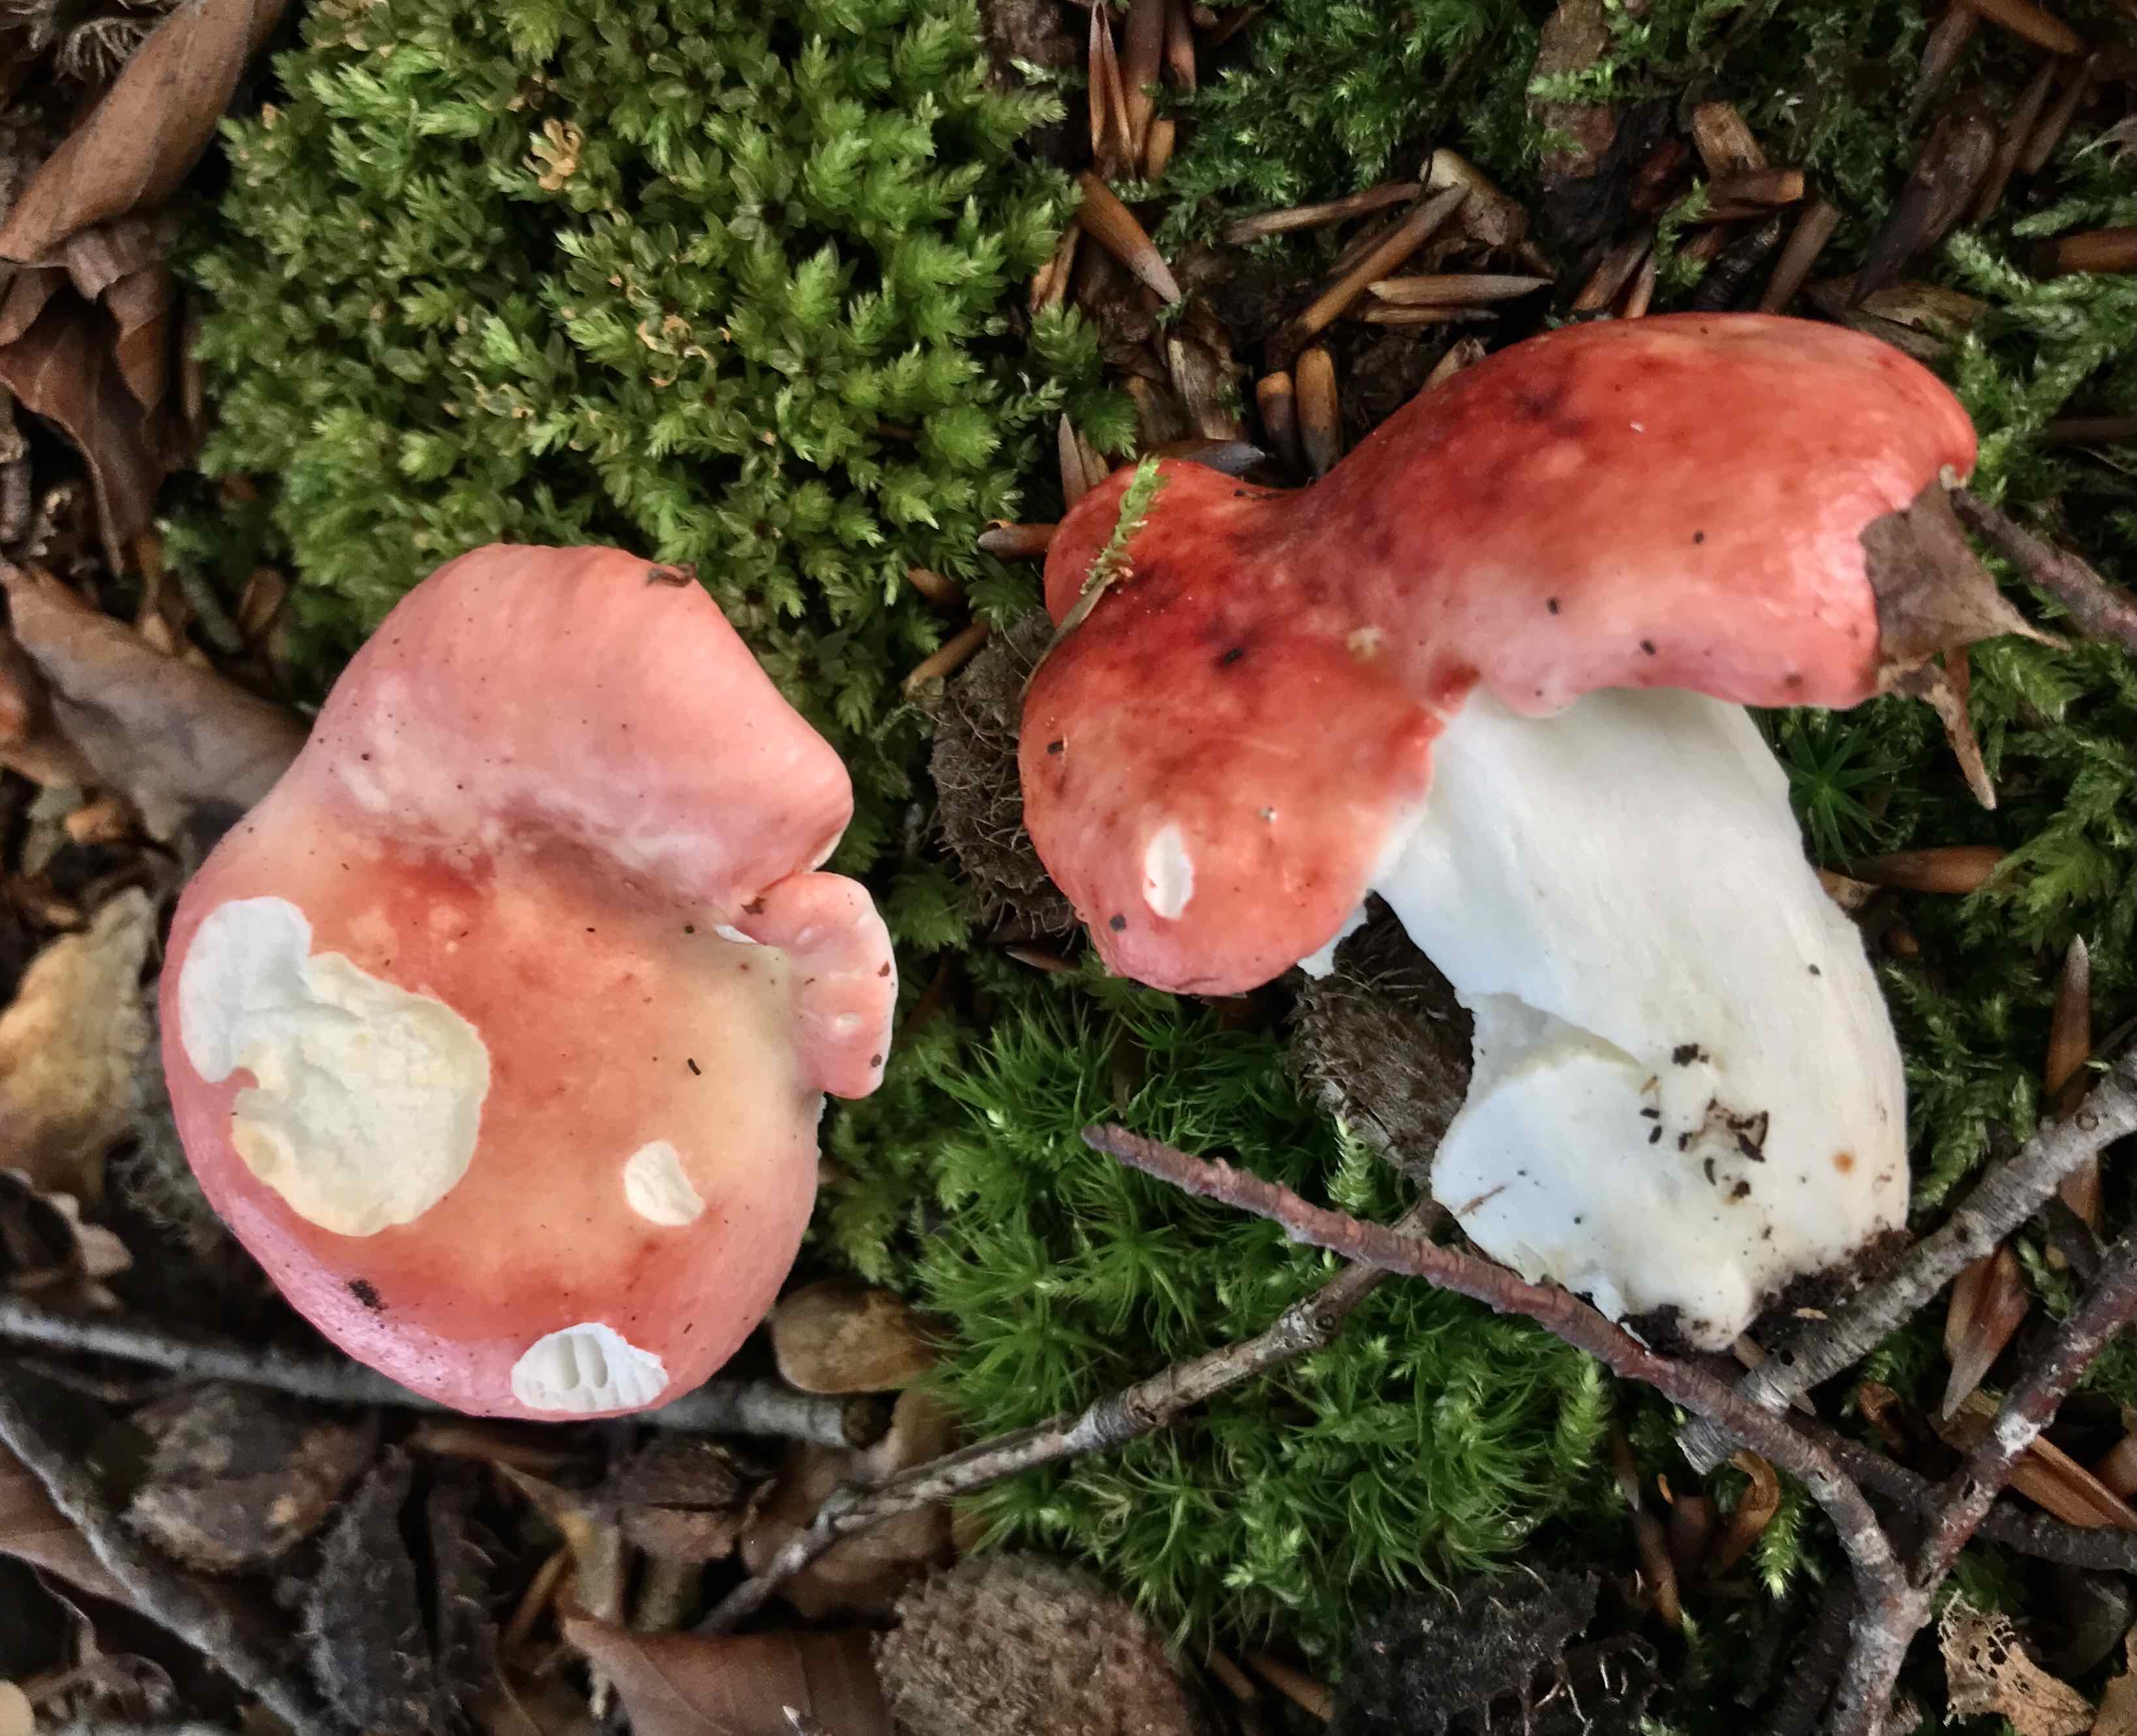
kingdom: Fungi
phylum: Basidiomycota
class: Agaricomycetes
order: Russulales
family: Russulaceae
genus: Russula
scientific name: Russula
